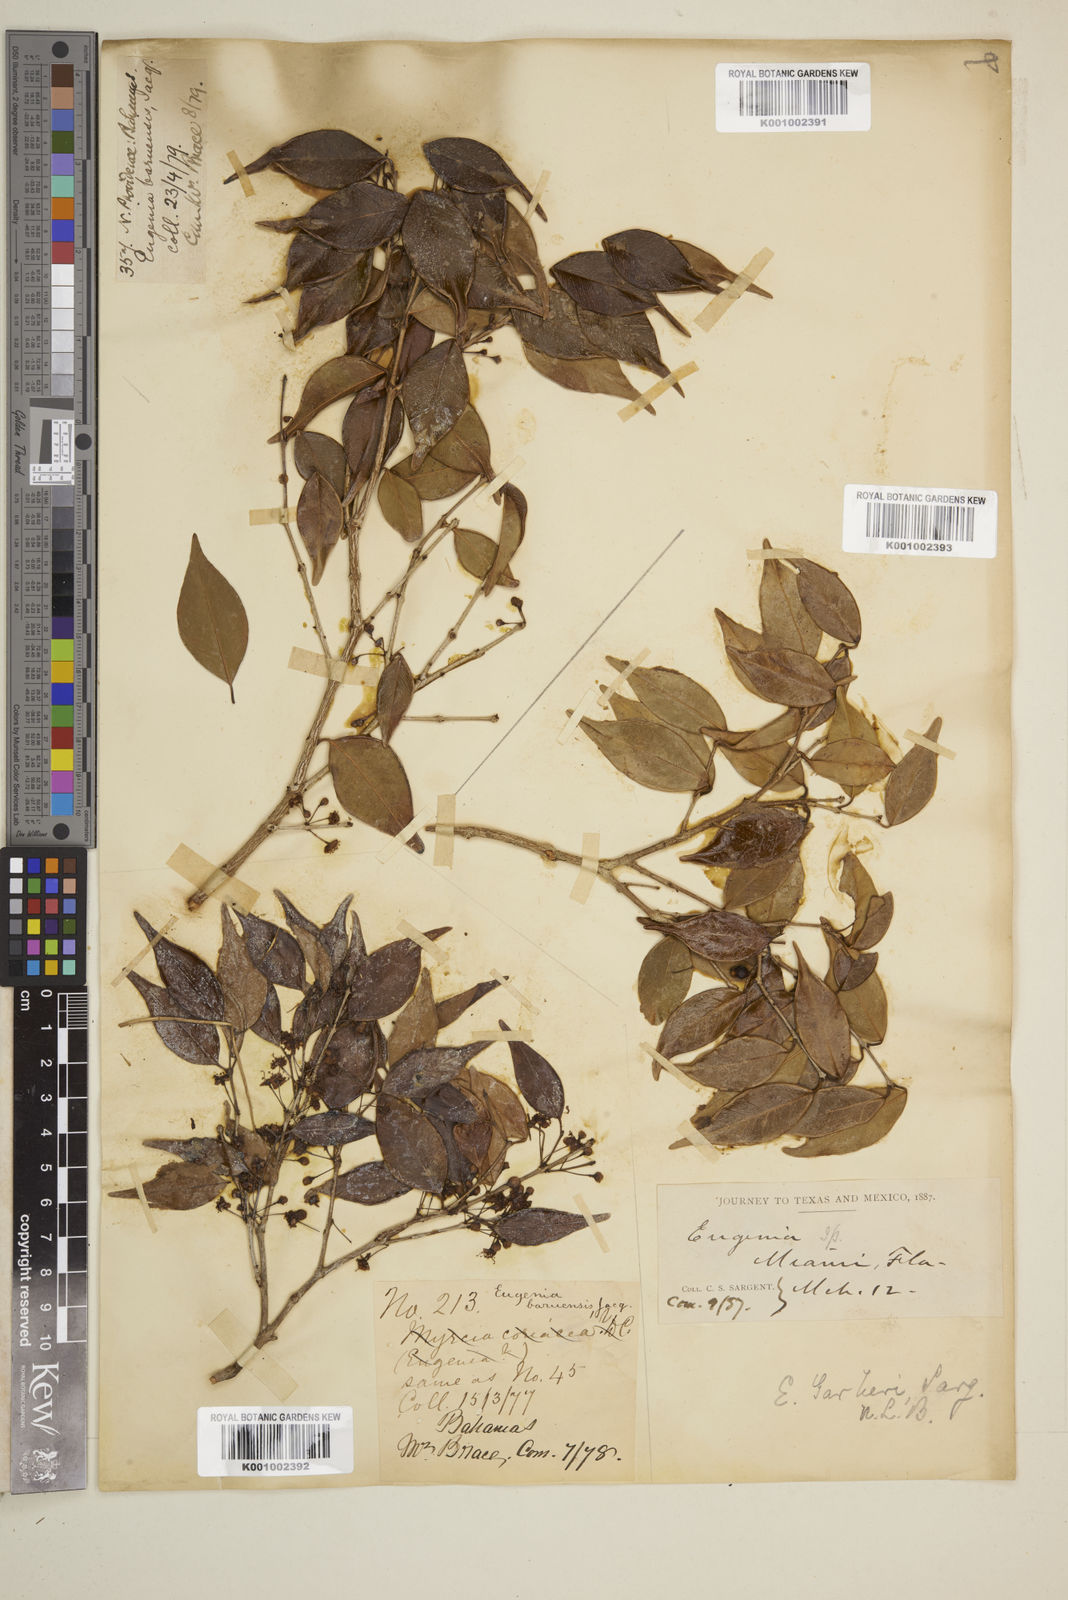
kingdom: Plantae
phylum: Tracheophyta
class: Magnoliopsida
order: Myrtales
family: Myrtaceae
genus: Eugenia
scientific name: Eugenia acapulcensis
